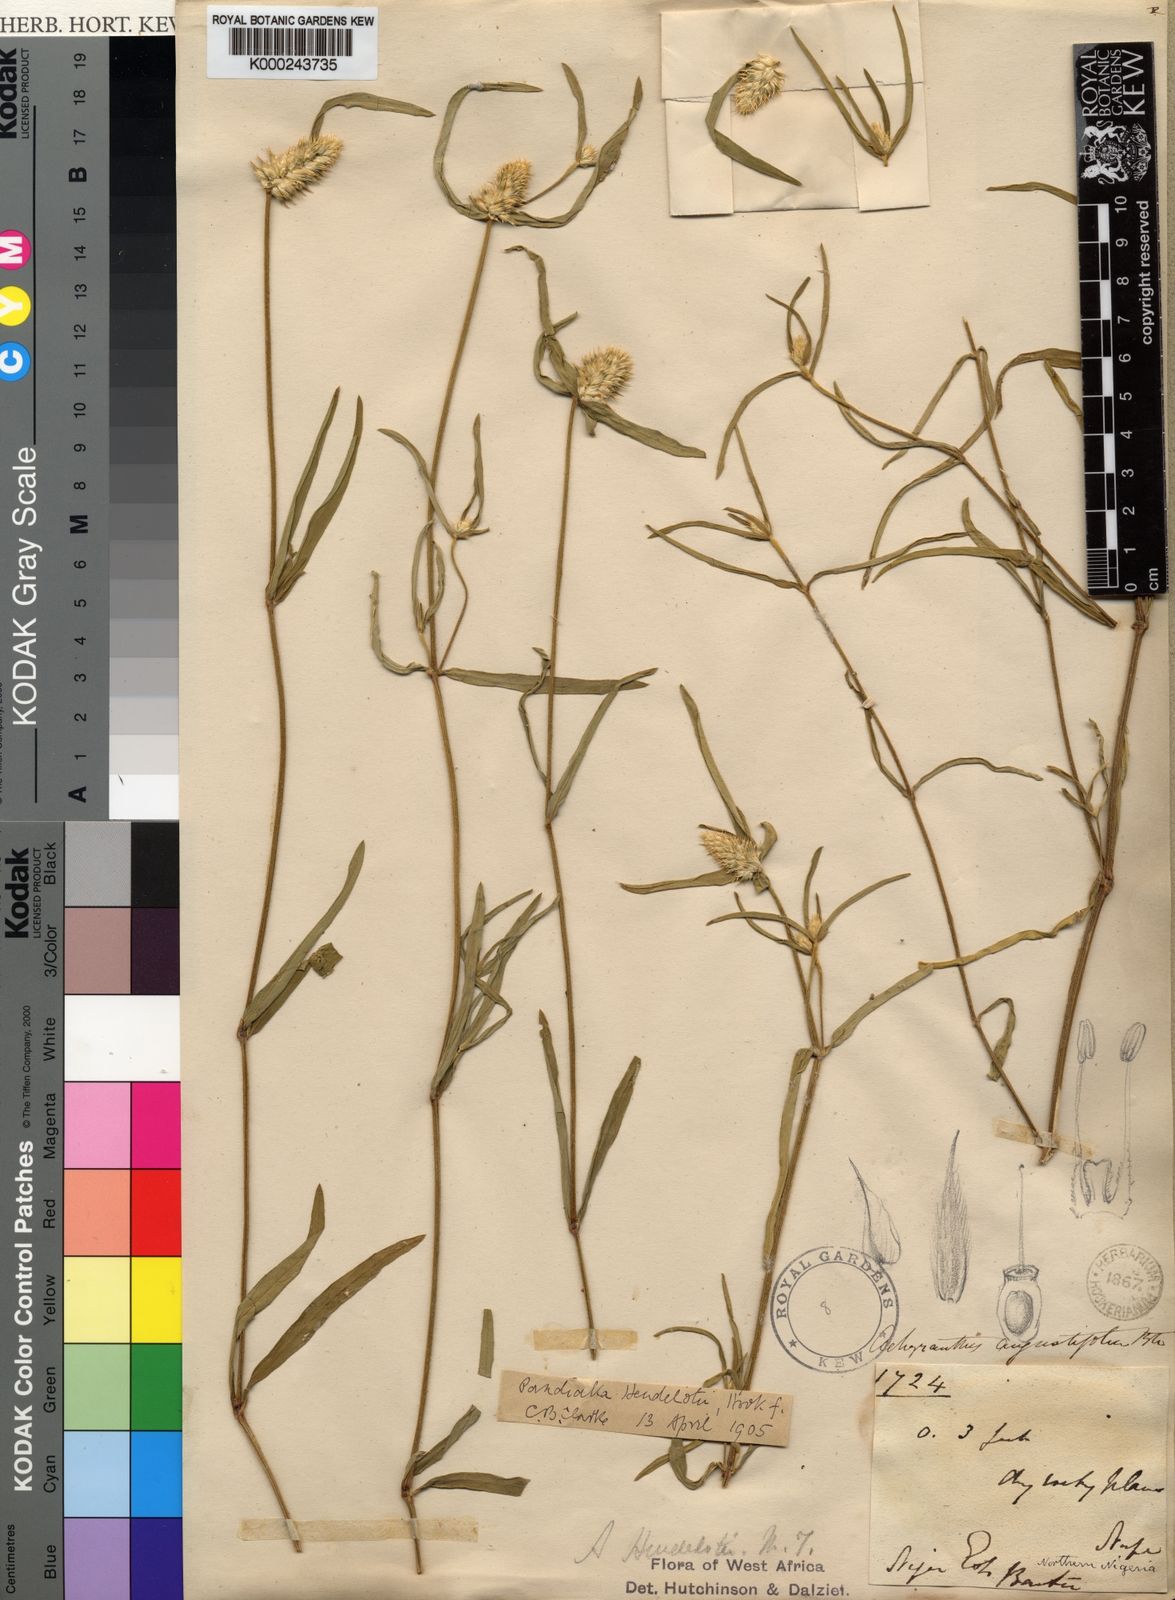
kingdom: Plantae
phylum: Tracheophyta
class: Magnoliopsida
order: Caryophyllales
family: Amaranthaceae
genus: Pandiaka
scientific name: Pandiaka
